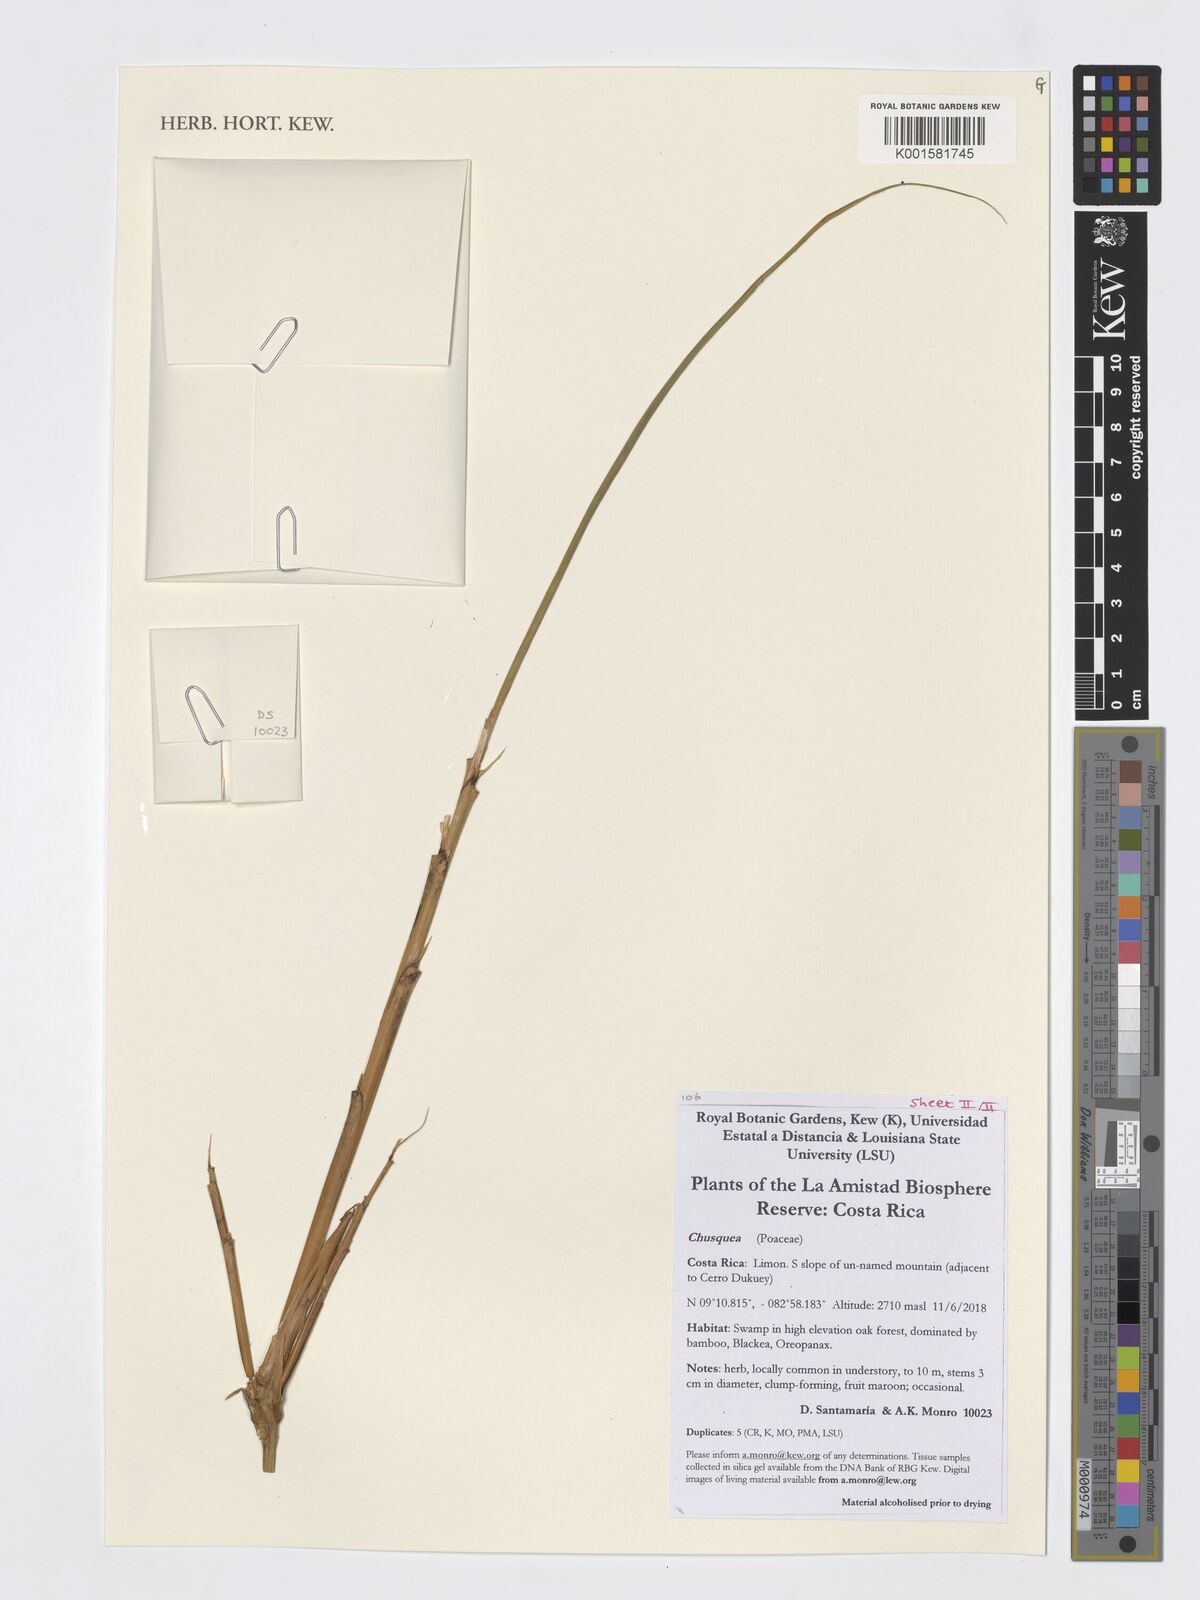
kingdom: Plantae
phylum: Tracheophyta
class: Liliopsida
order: Poales
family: Poaceae
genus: Chusquea
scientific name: Chusquea
